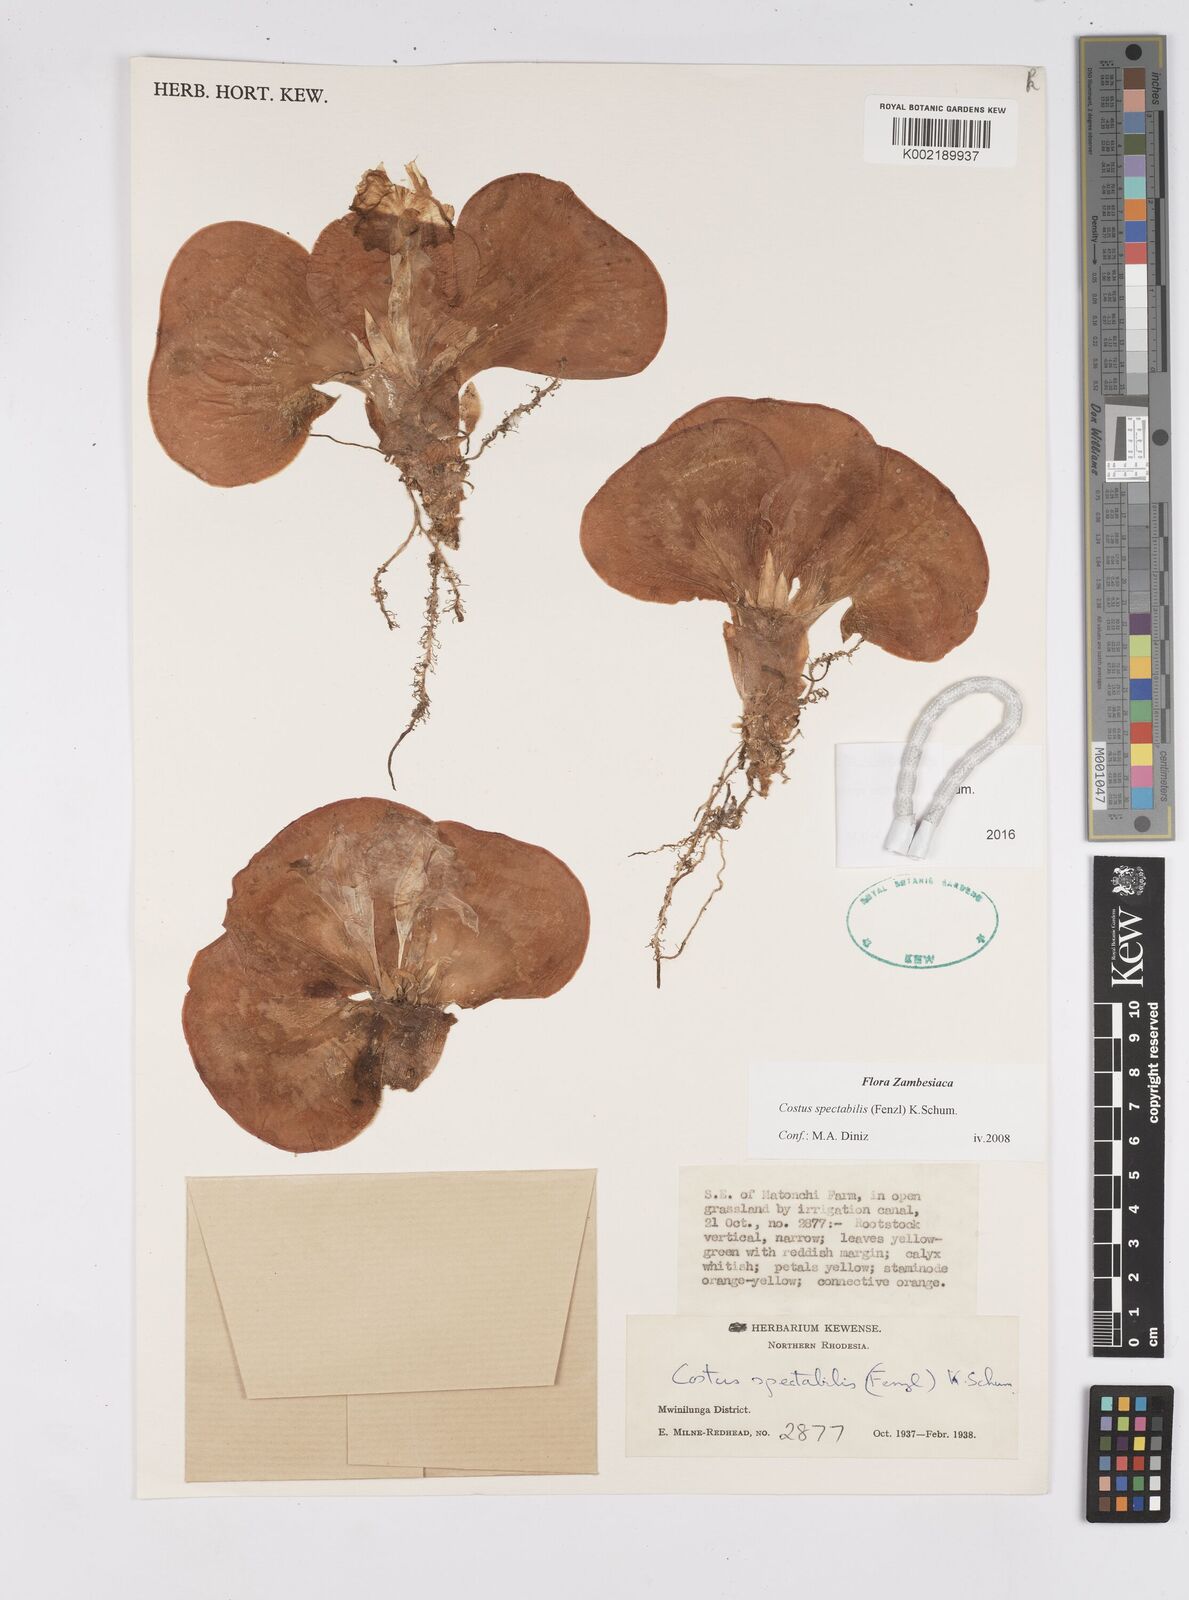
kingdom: Plantae
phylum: Tracheophyta
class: Liliopsida
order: Zingiberales
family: Costaceae
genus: Costus
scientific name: Costus spectabilis
